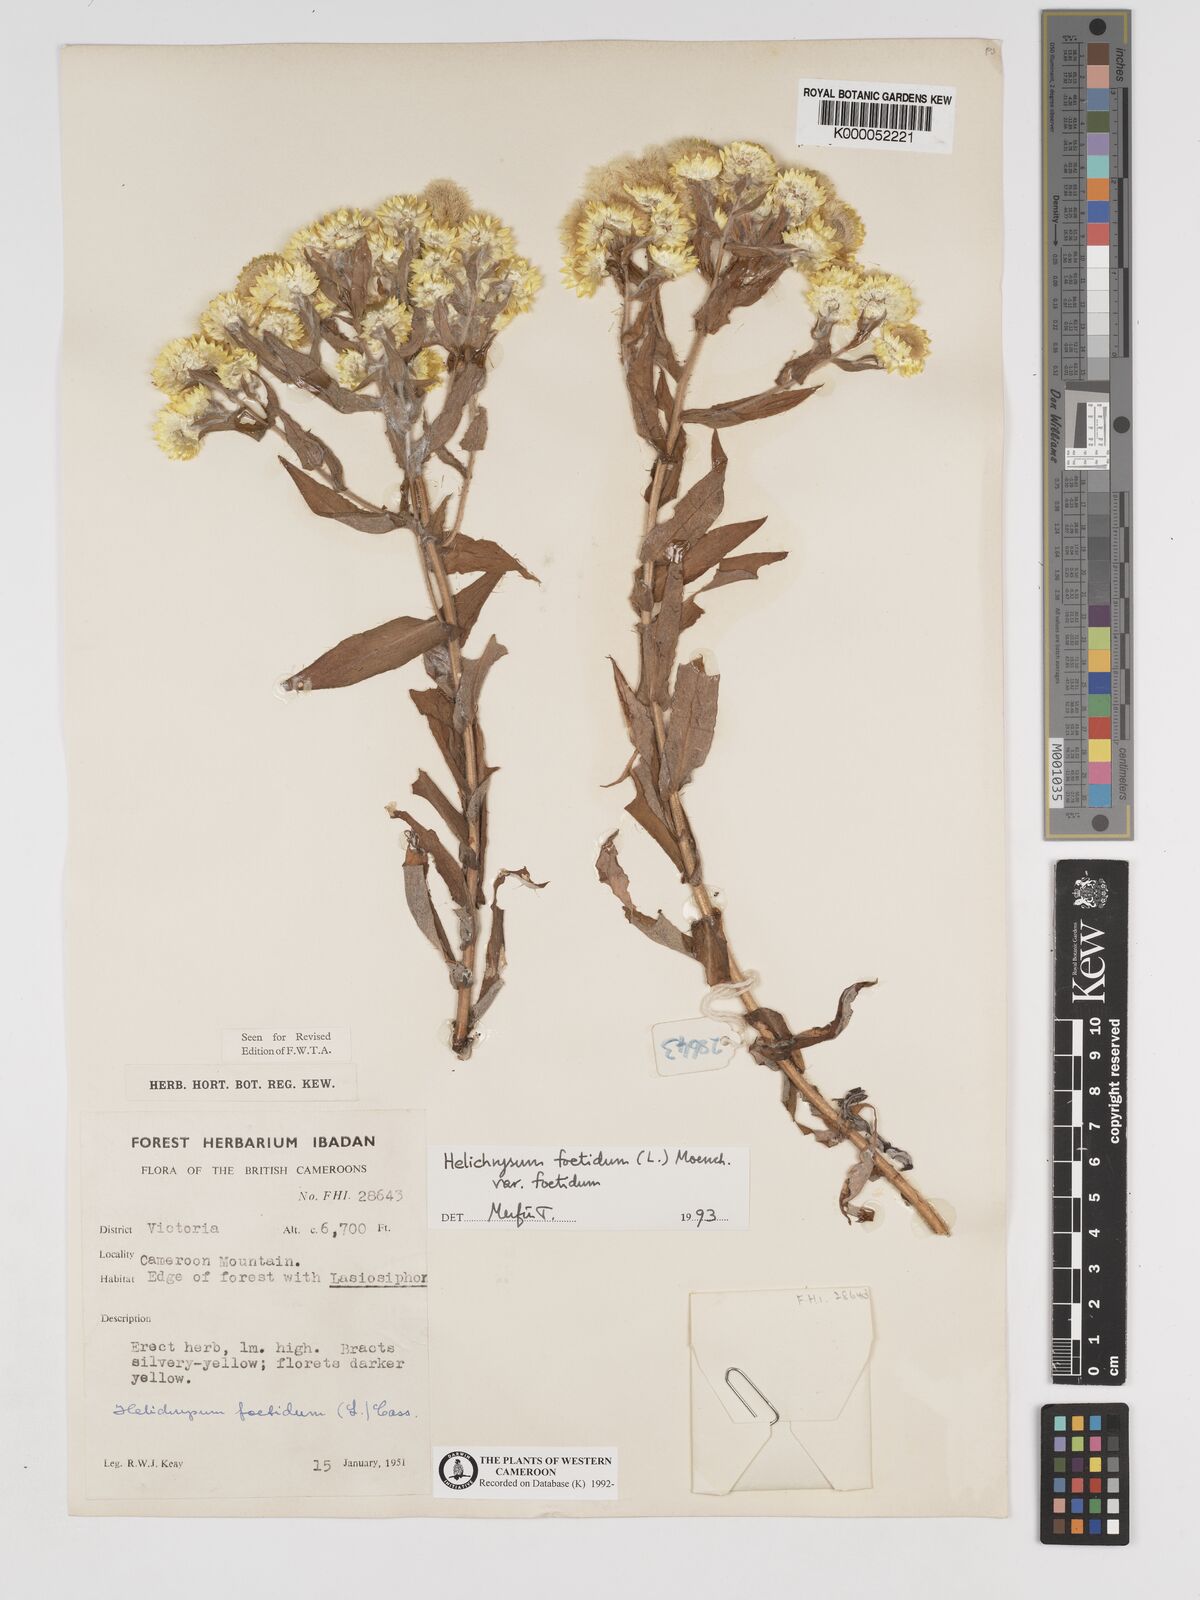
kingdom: Plantae
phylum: Tracheophyta
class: Magnoliopsida
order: Asterales
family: Asteraceae
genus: Helichrysum
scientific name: Helichrysum foetidum
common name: Stinking everlasting
